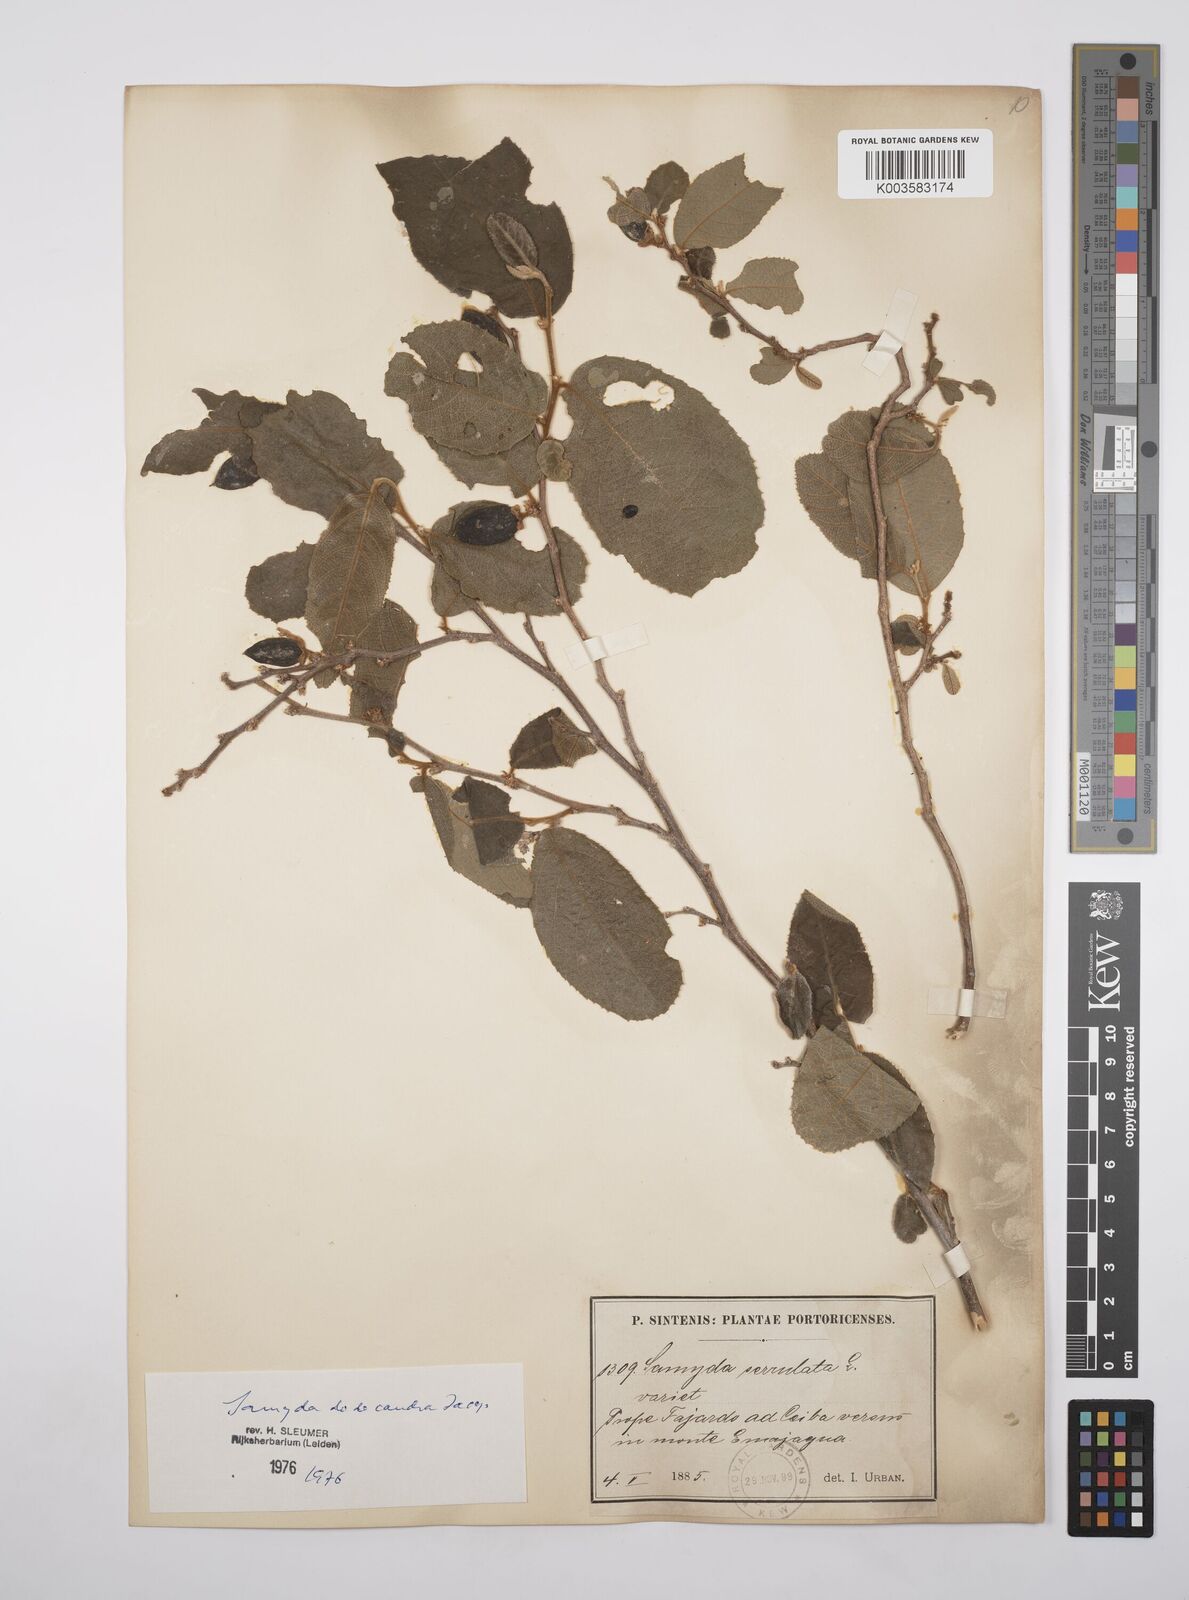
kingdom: Plantae
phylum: Tracheophyta
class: Magnoliopsida
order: Malpighiales
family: Salicaceae
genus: Casearia
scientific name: Casearia dodecandra
